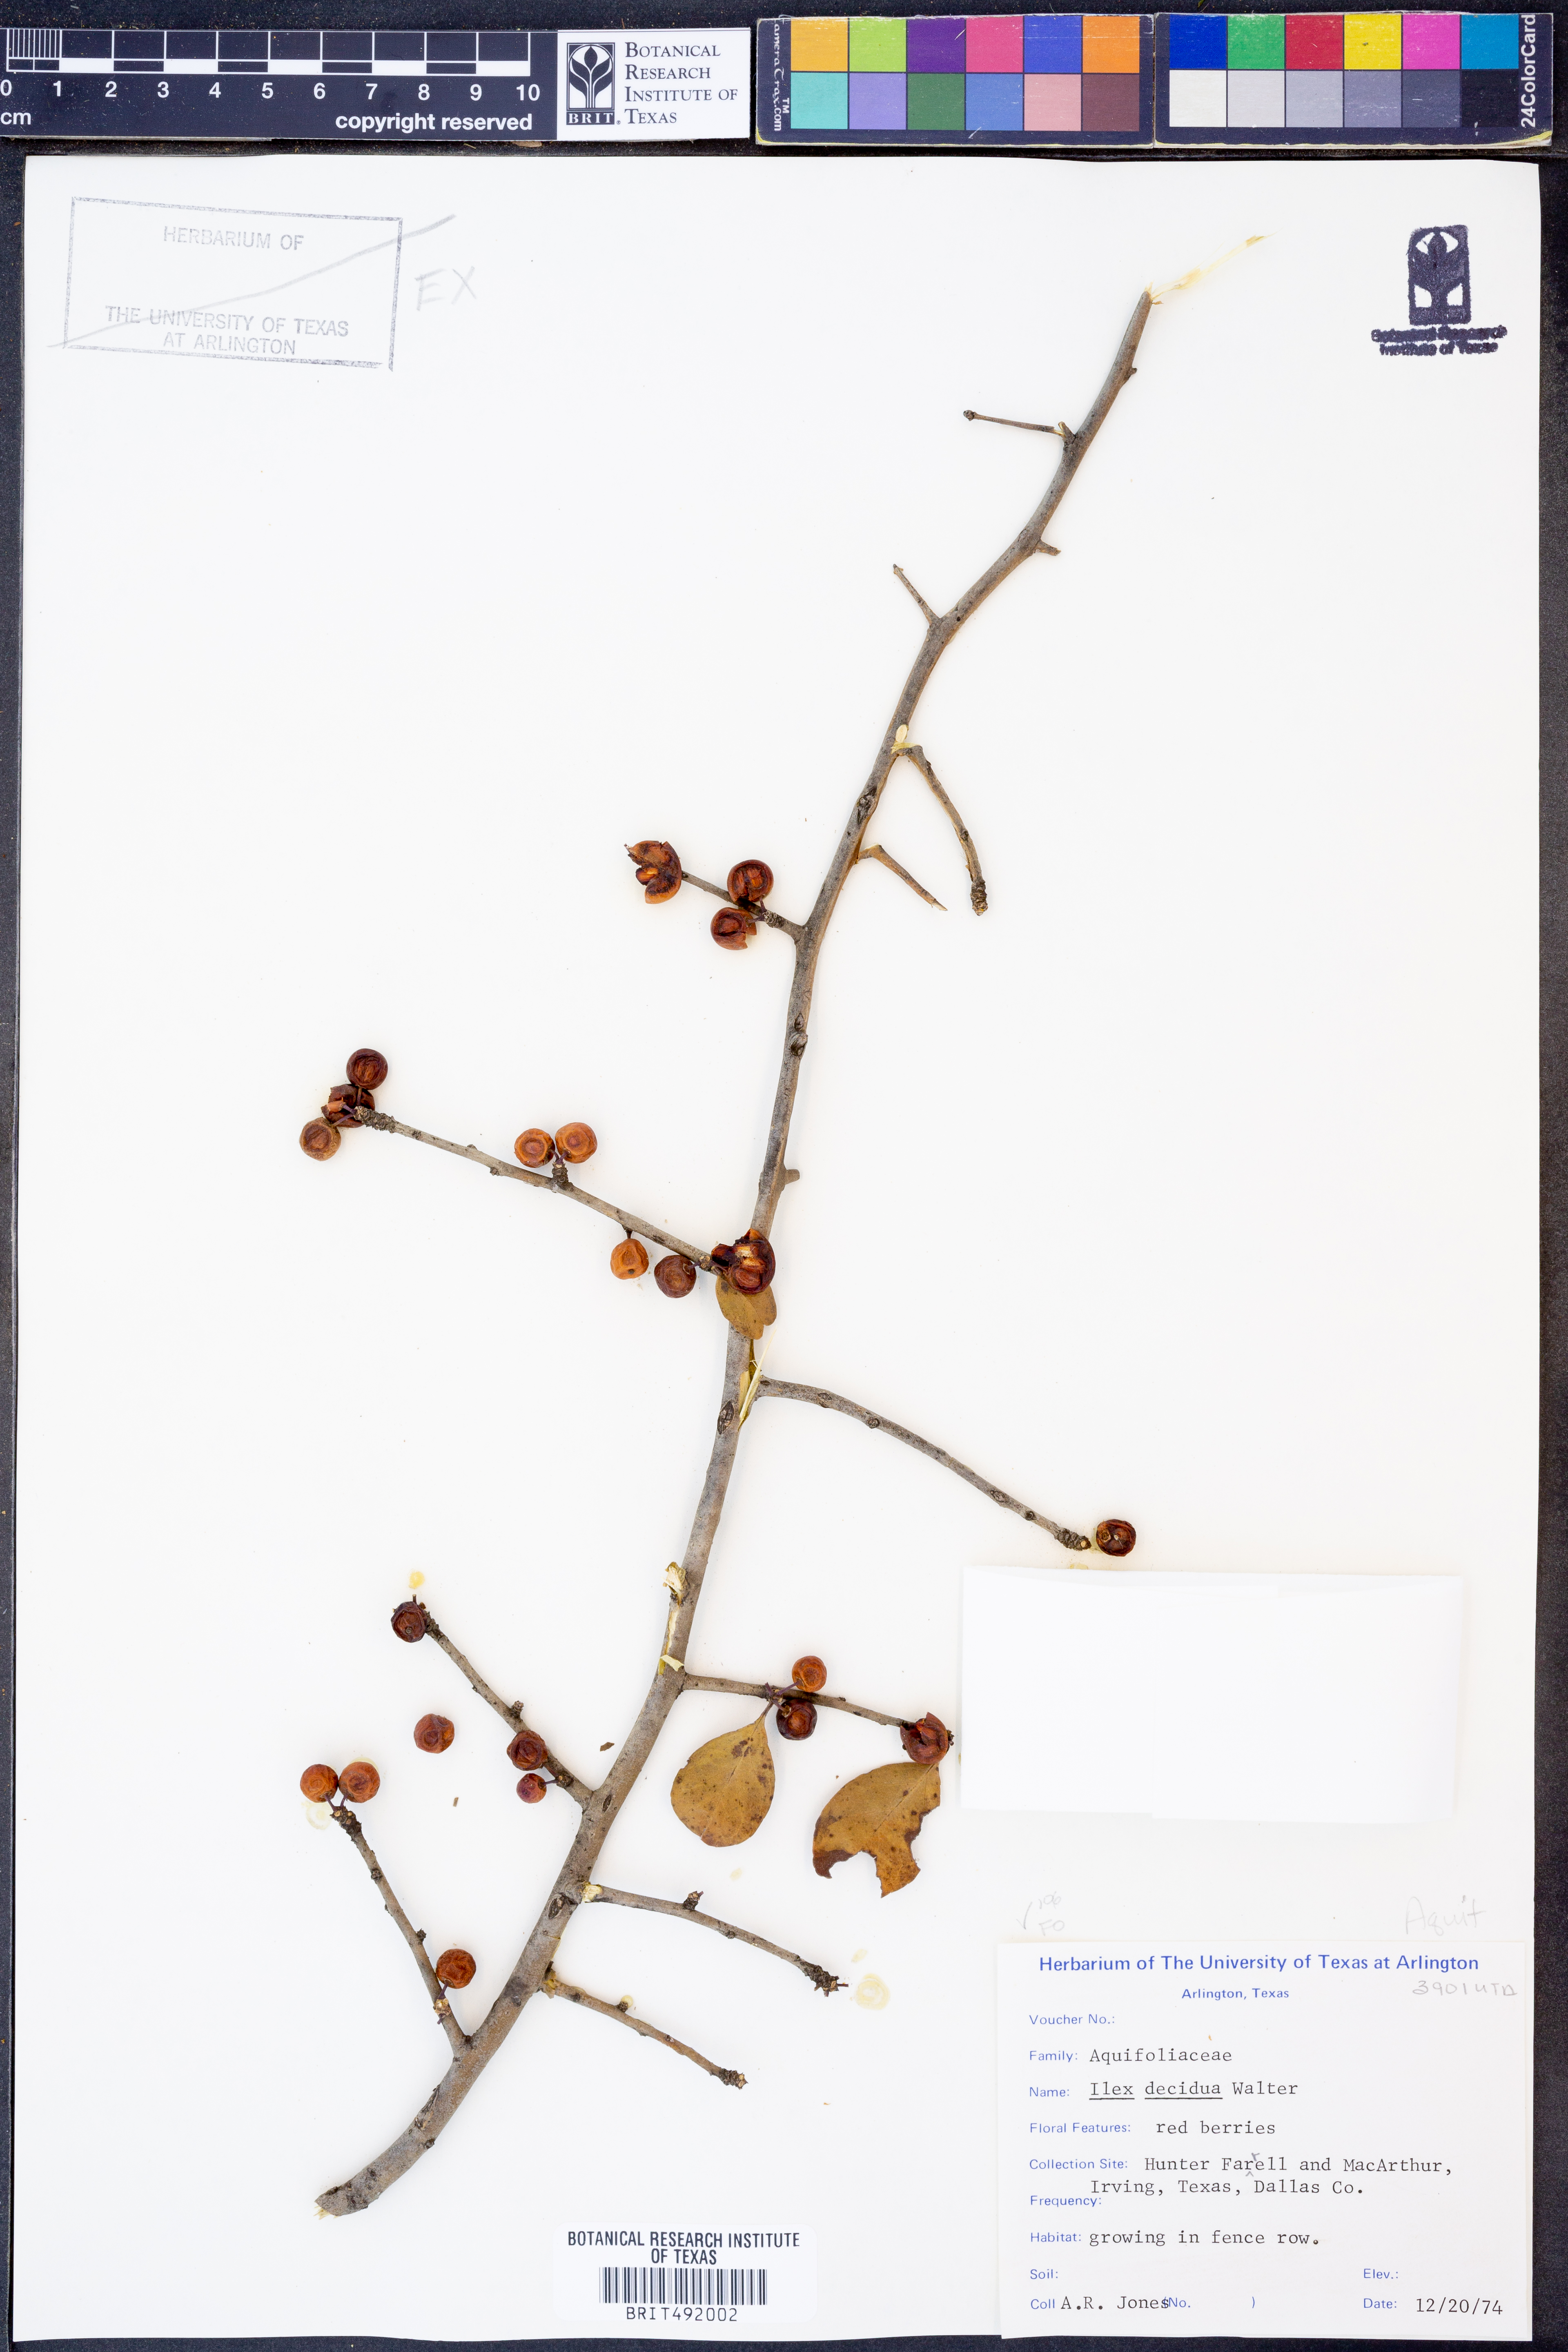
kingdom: Plantae
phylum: Tracheophyta
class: Magnoliopsida
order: Aquifoliales
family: Aquifoliaceae
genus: Ilex
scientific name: Ilex decidua
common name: Possum-haw
